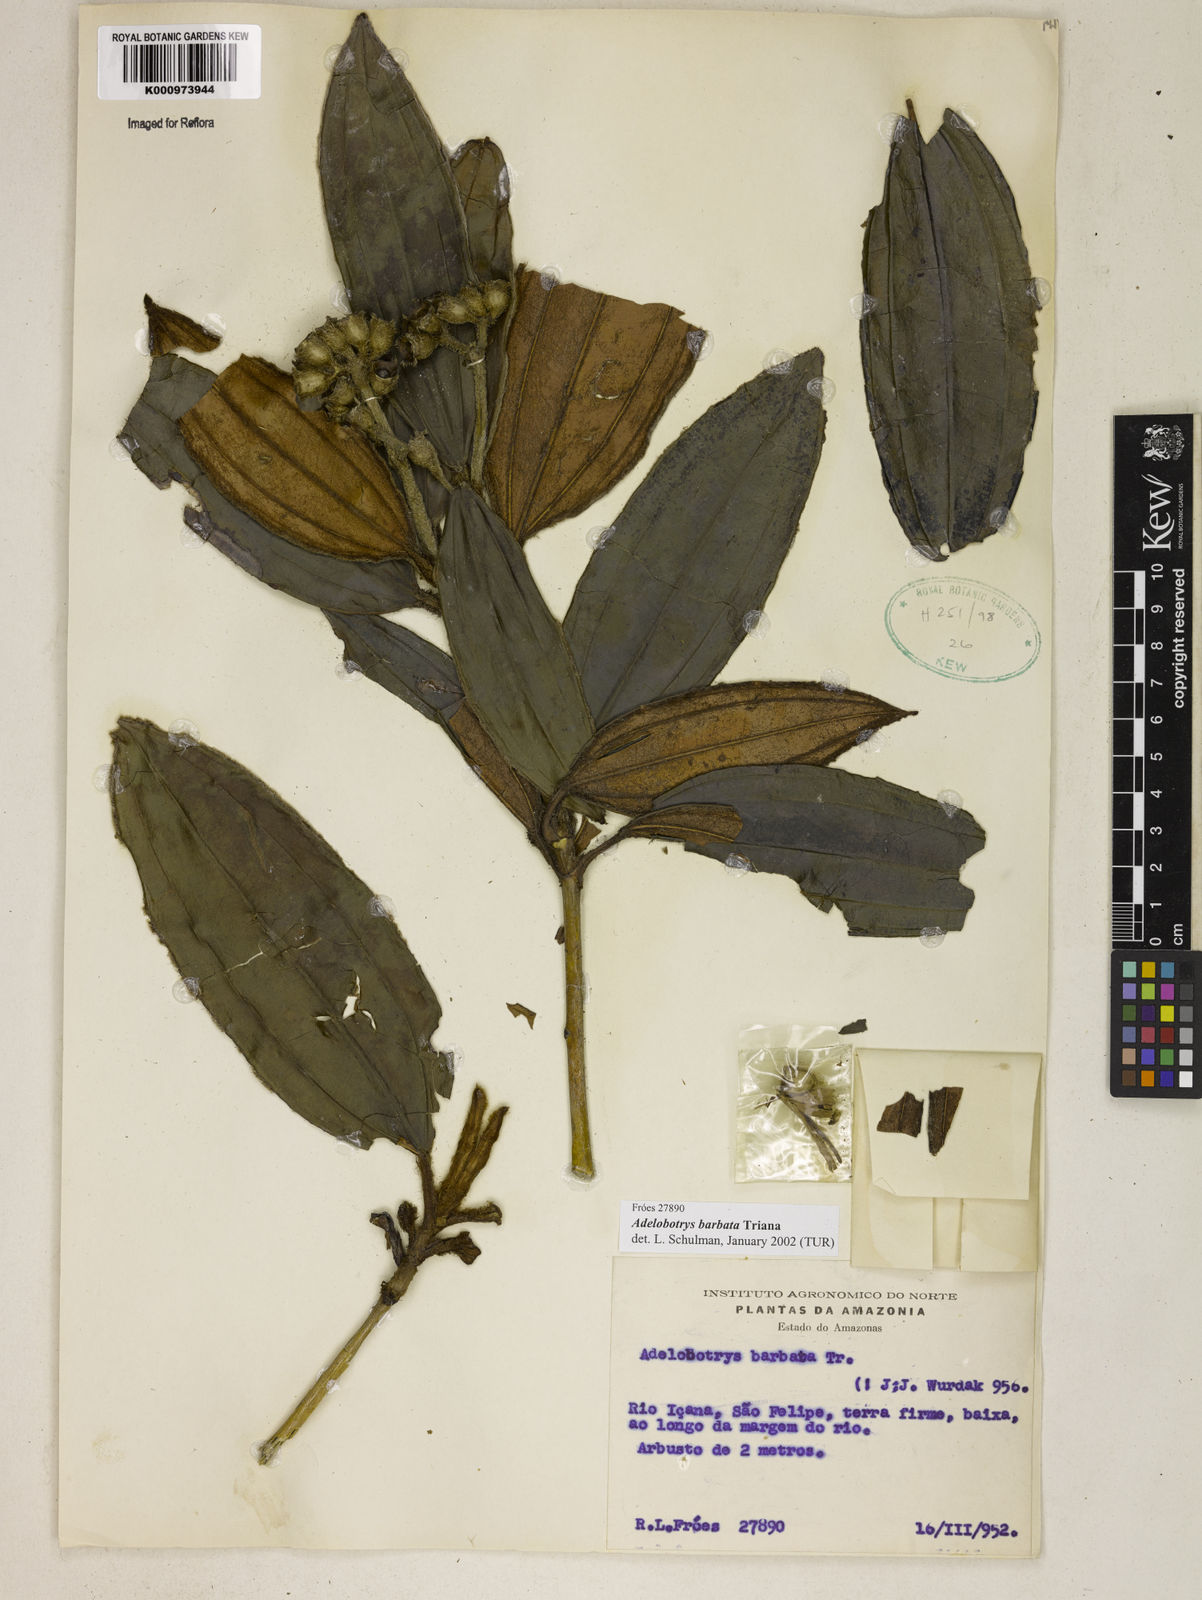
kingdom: Plantae
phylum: Tracheophyta
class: Magnoliopsida
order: Myrtales
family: Melastomataceae
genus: Adelobotrys
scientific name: Adelobotrys barbatus
